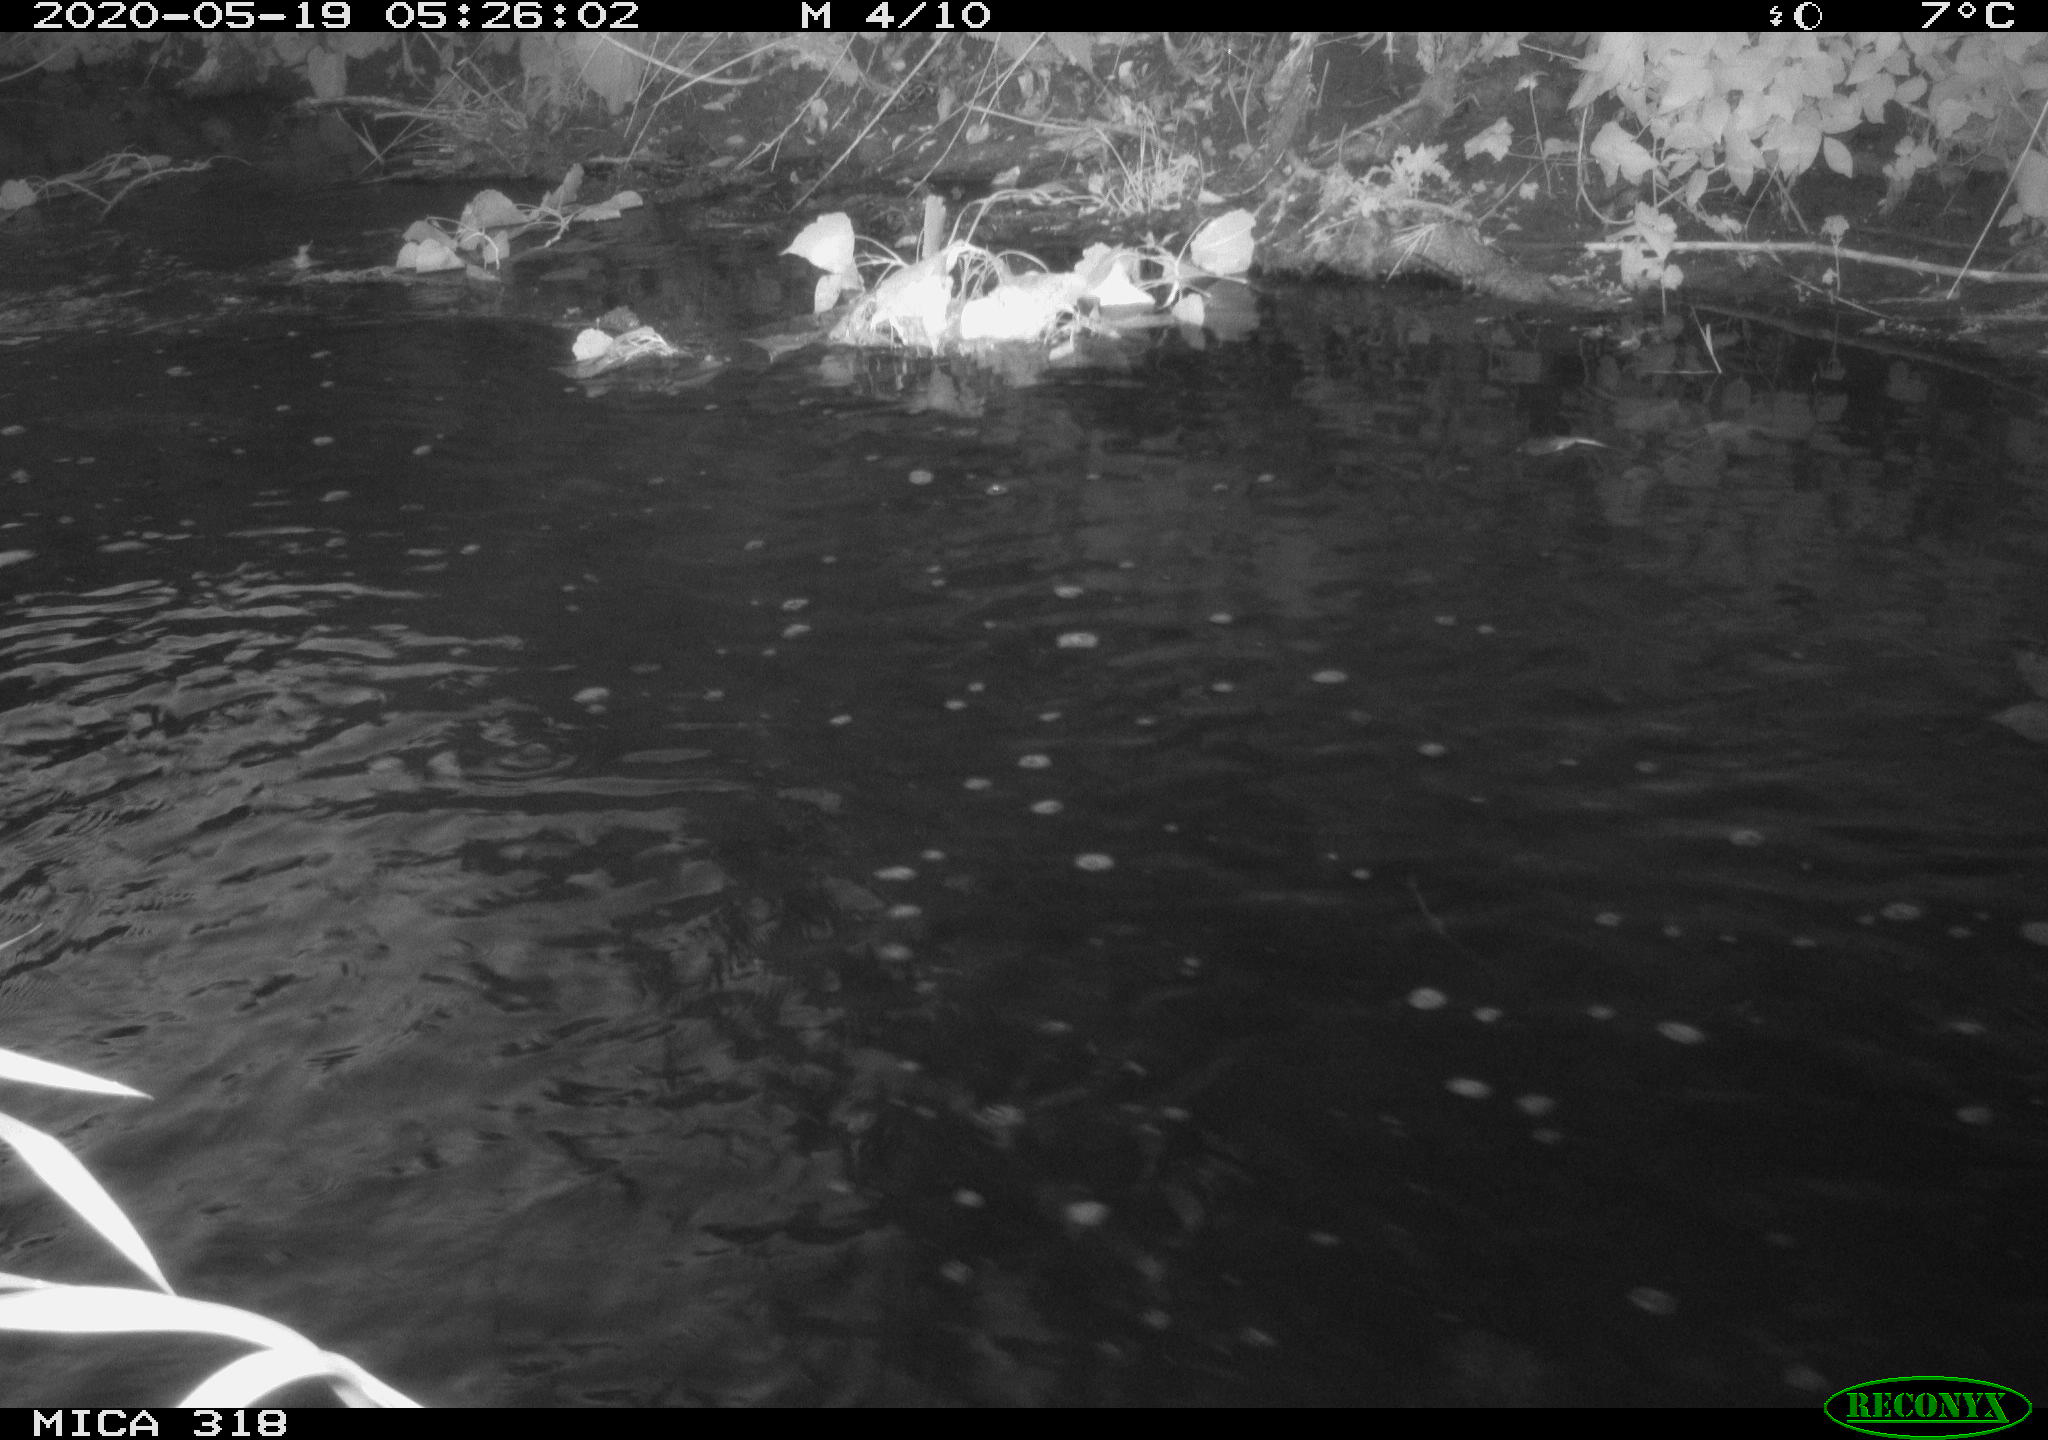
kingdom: Animalia
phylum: Chordata
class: Aves
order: Gruiformes
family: Rallidae
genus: Gallinula
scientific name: Gallinula chloropus
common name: Common moorhen
